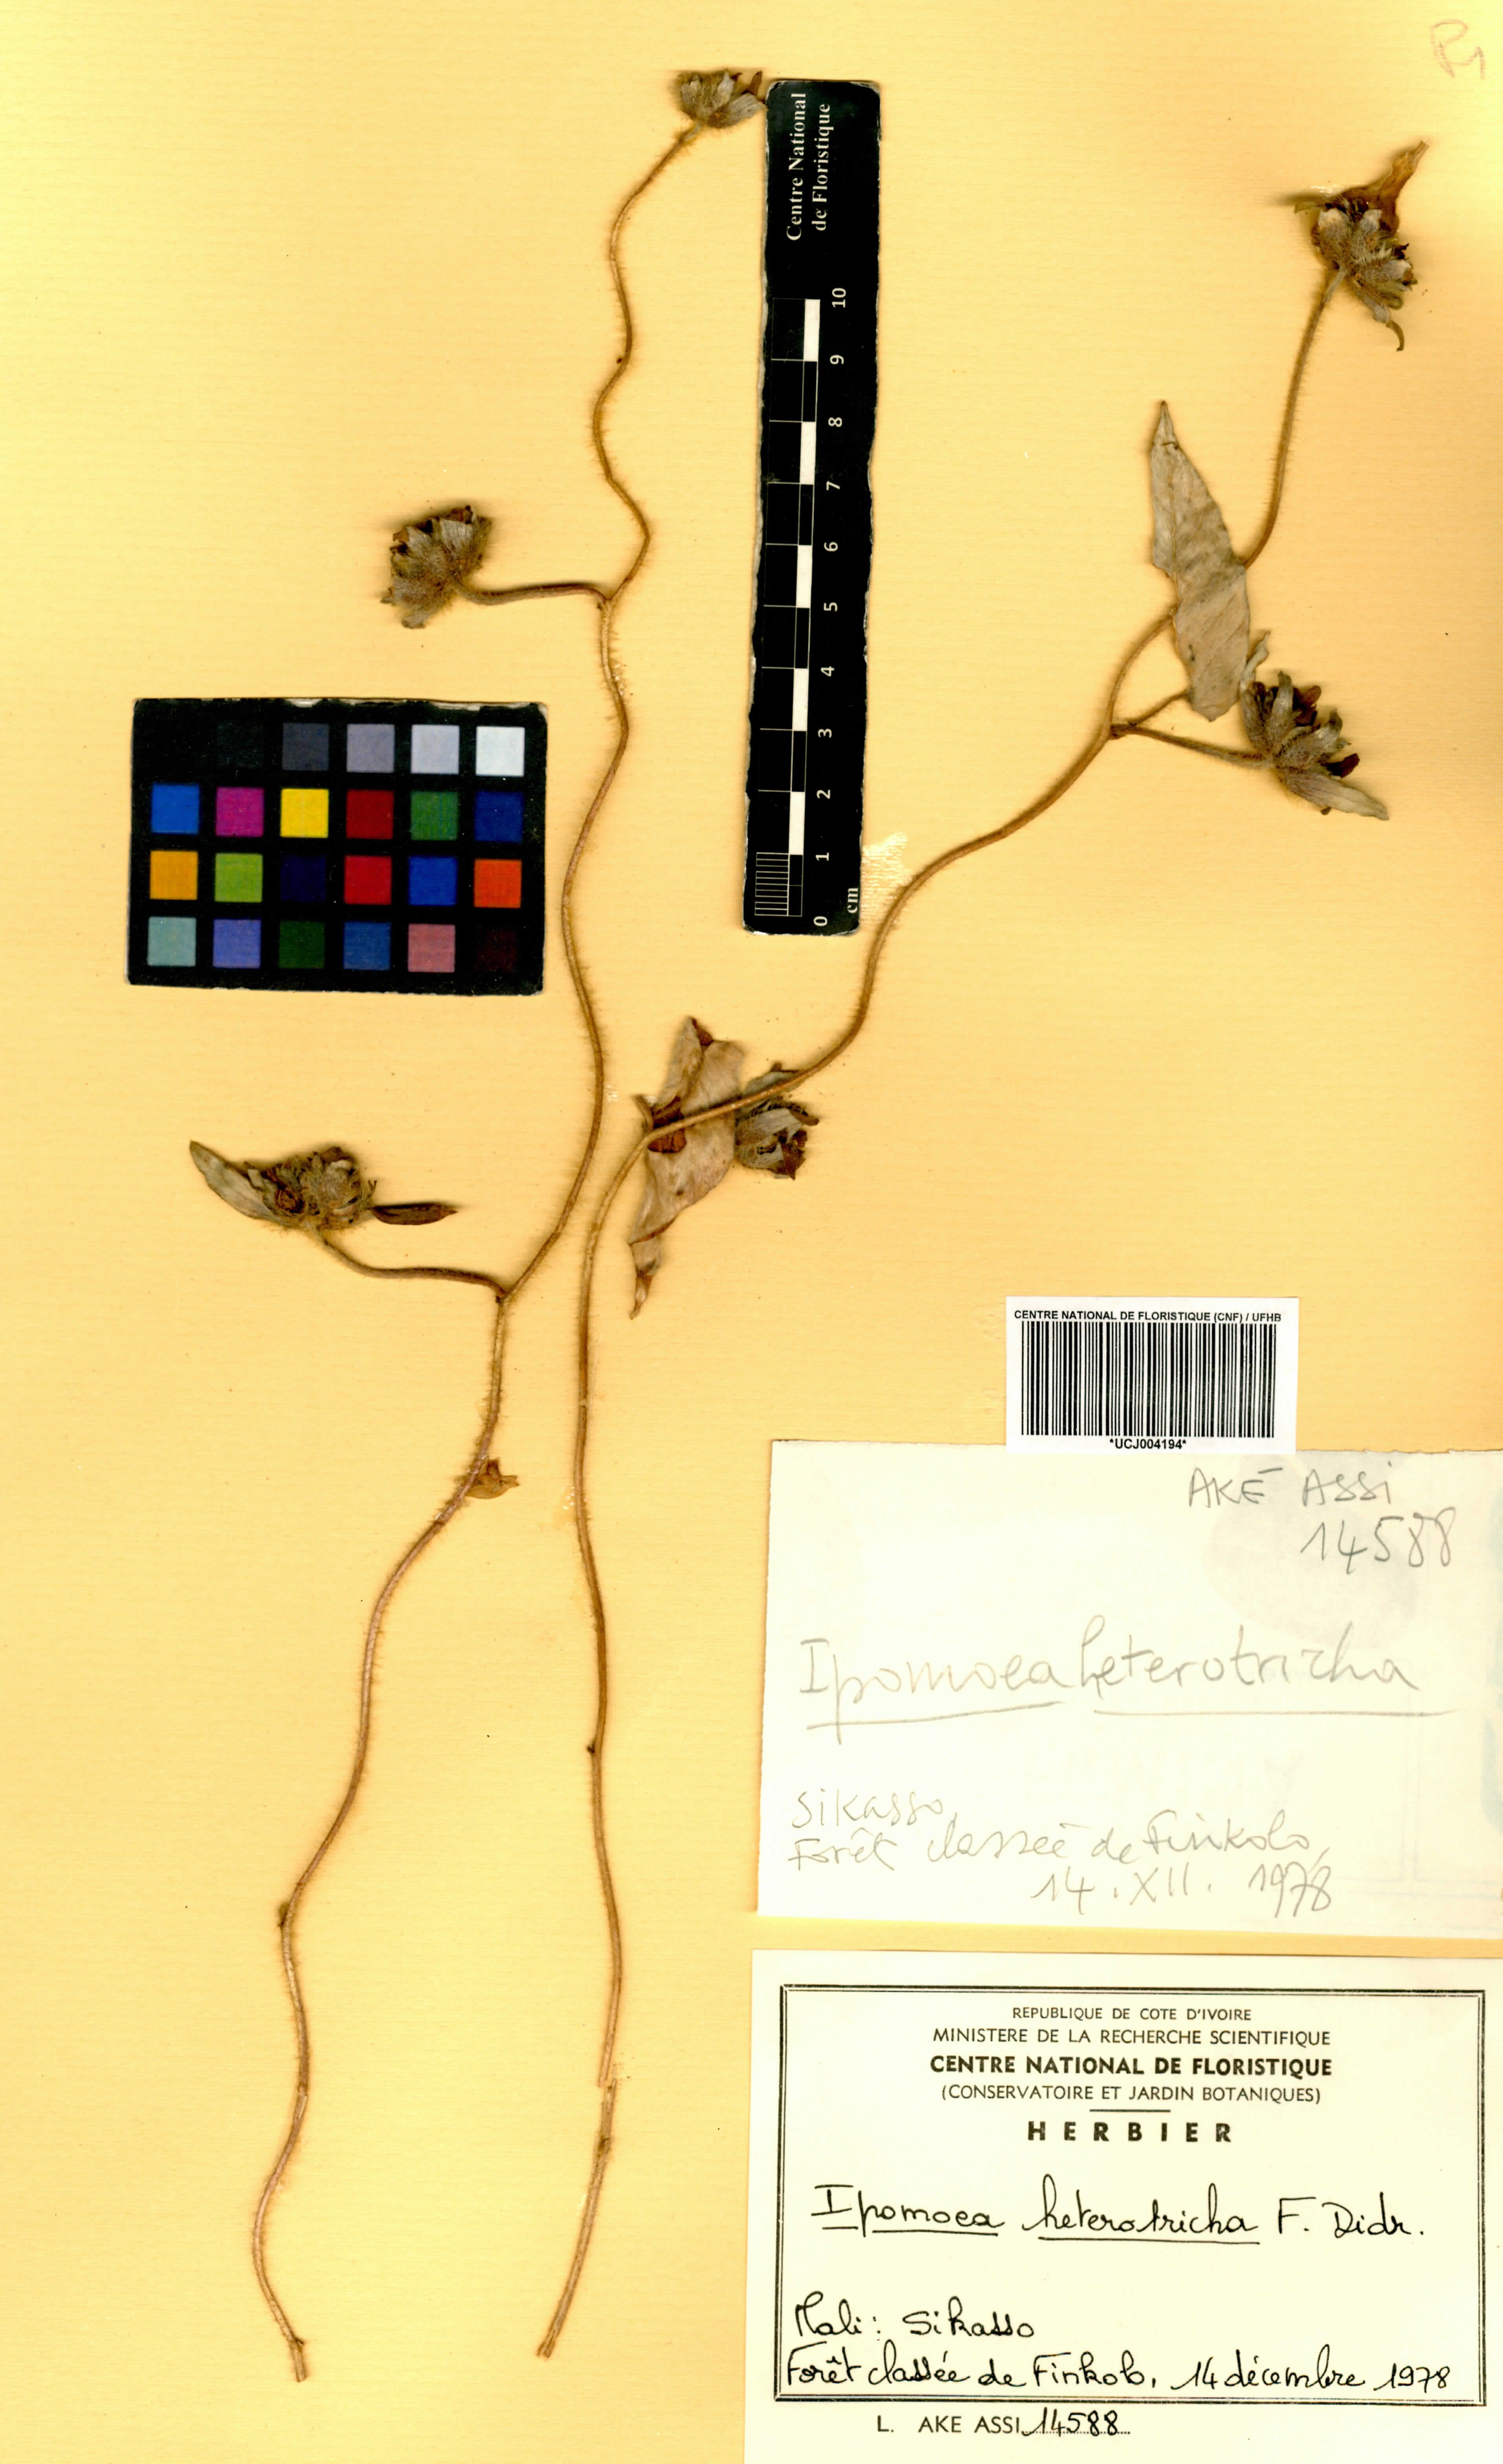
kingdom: Plantae
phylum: Tracheophyta
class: Magnoliopsida
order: Solanales
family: Convolvulaceae
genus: Ipomoea
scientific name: Ipomoea heterotricha
